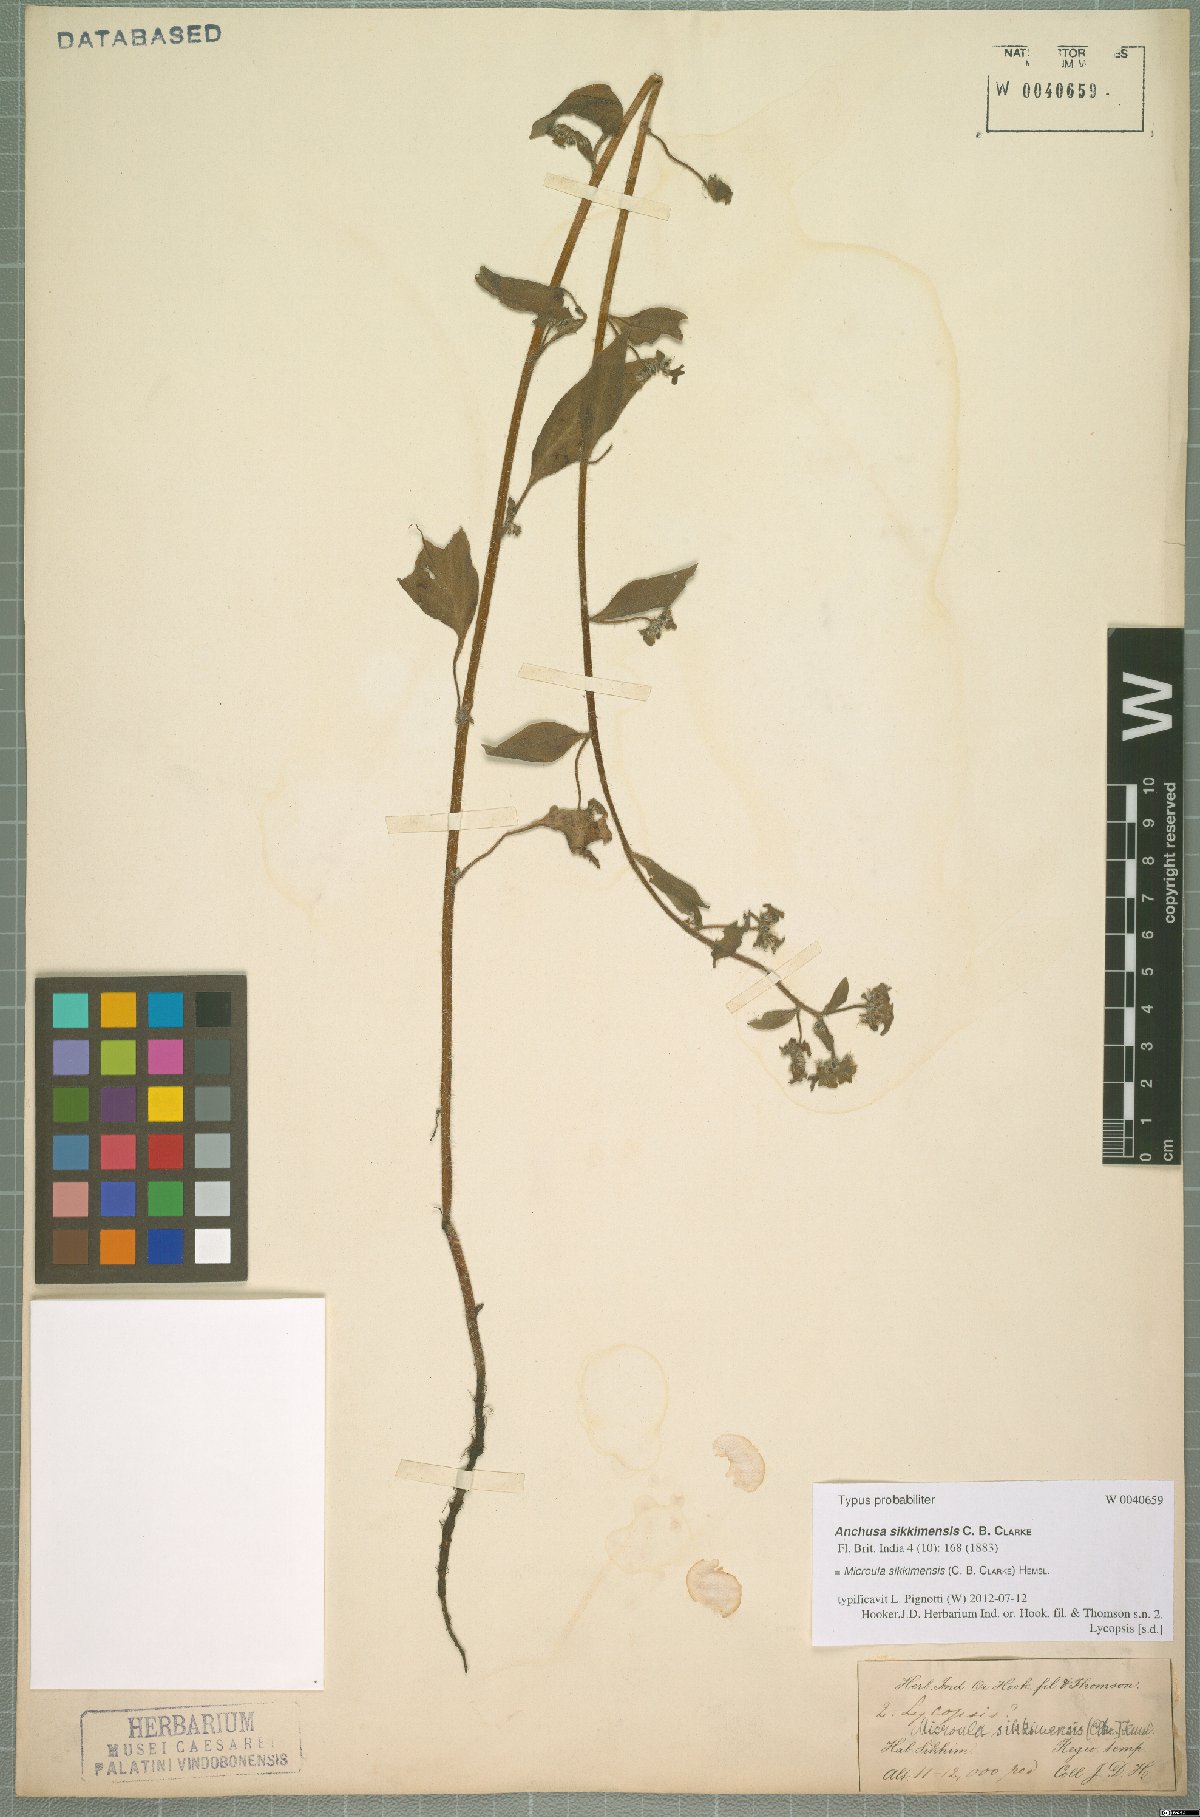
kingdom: Plantae
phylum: Tracheophyta
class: Magnoliopsida
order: Boraginales
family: Boraginaceae
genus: Microula
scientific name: Microula sikkimensis
